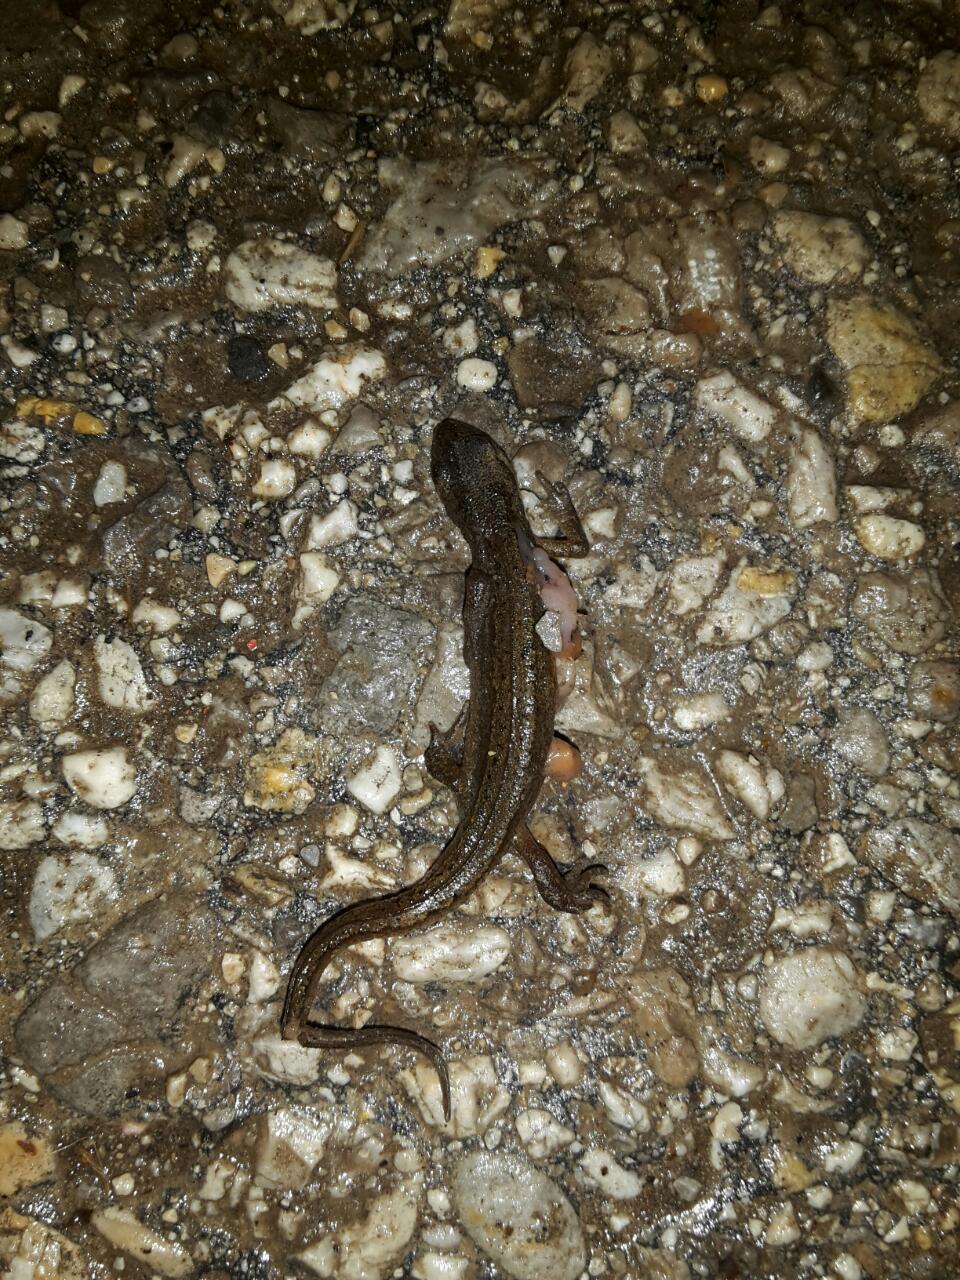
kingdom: Animalia
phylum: Chordata
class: Amphibia
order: Caudata
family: Salamandridae
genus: Lissotriton
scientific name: Lissotriton vulgaris
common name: Smooth newt
